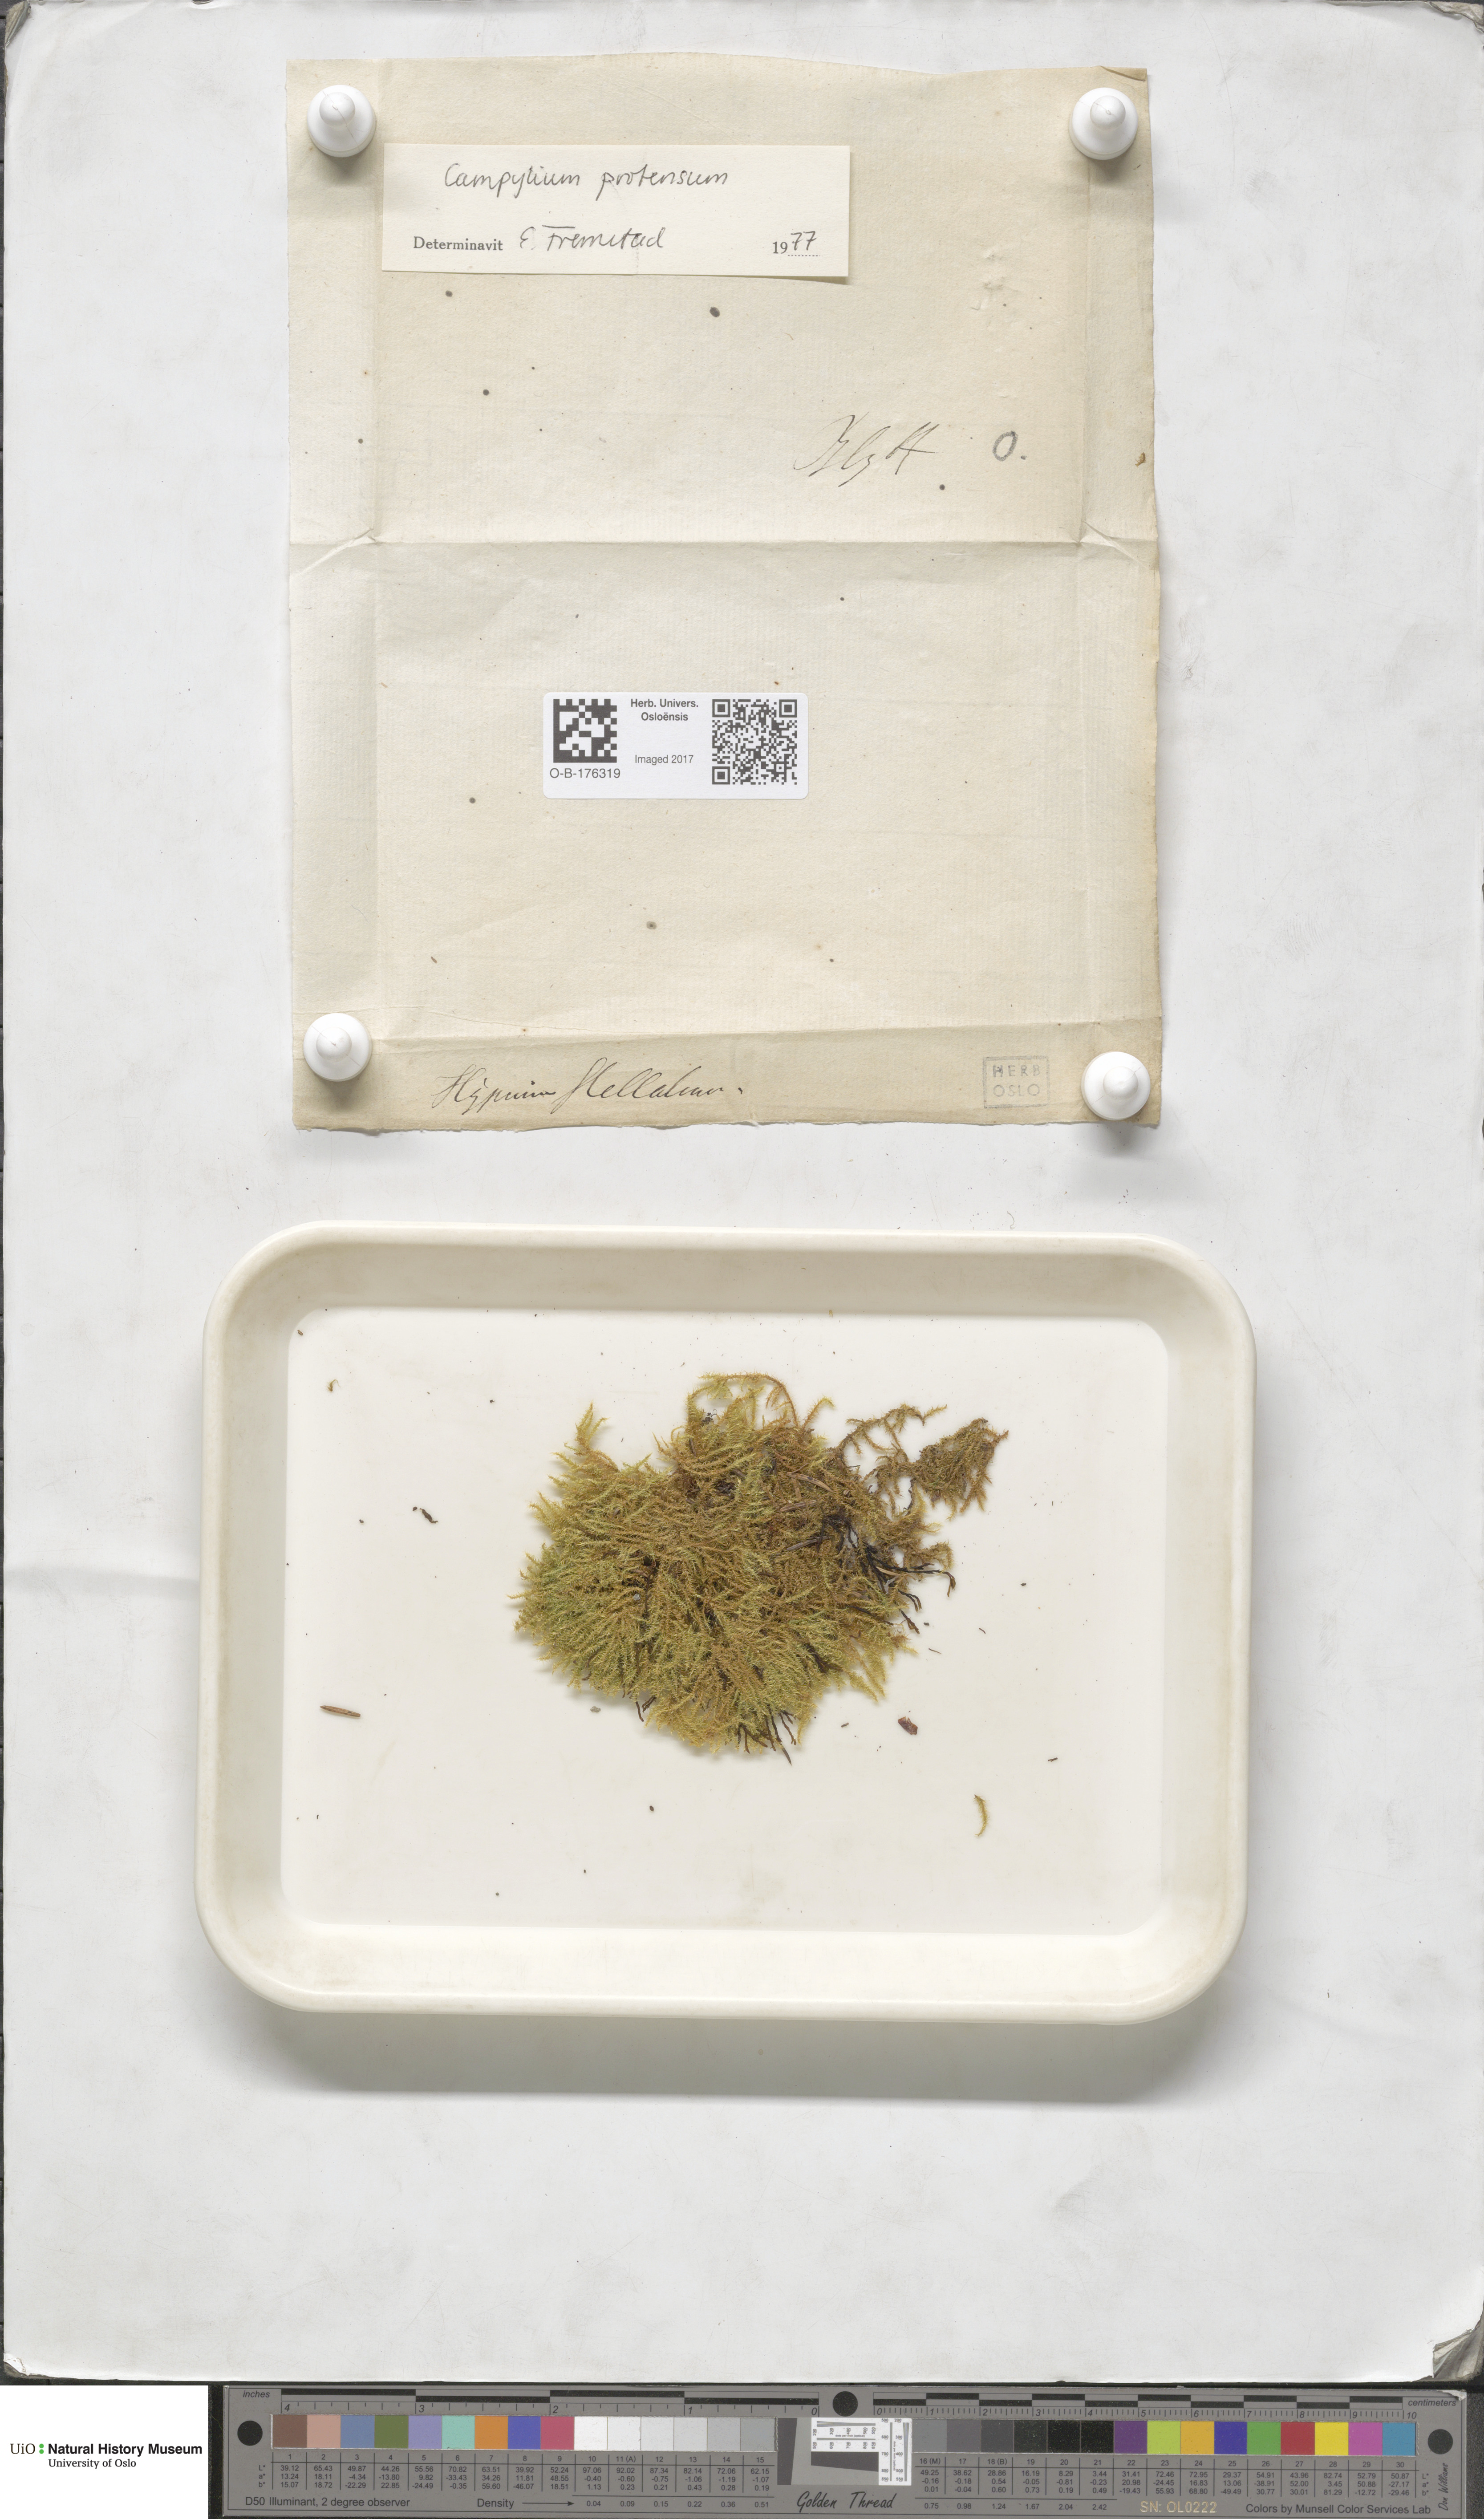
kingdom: Plantae
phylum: Bryophyta
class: Bryopsida
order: Hypnales
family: Amblystegiaceae
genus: Campylium
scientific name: Campylium stellatum
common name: Yellow starry fen moss
